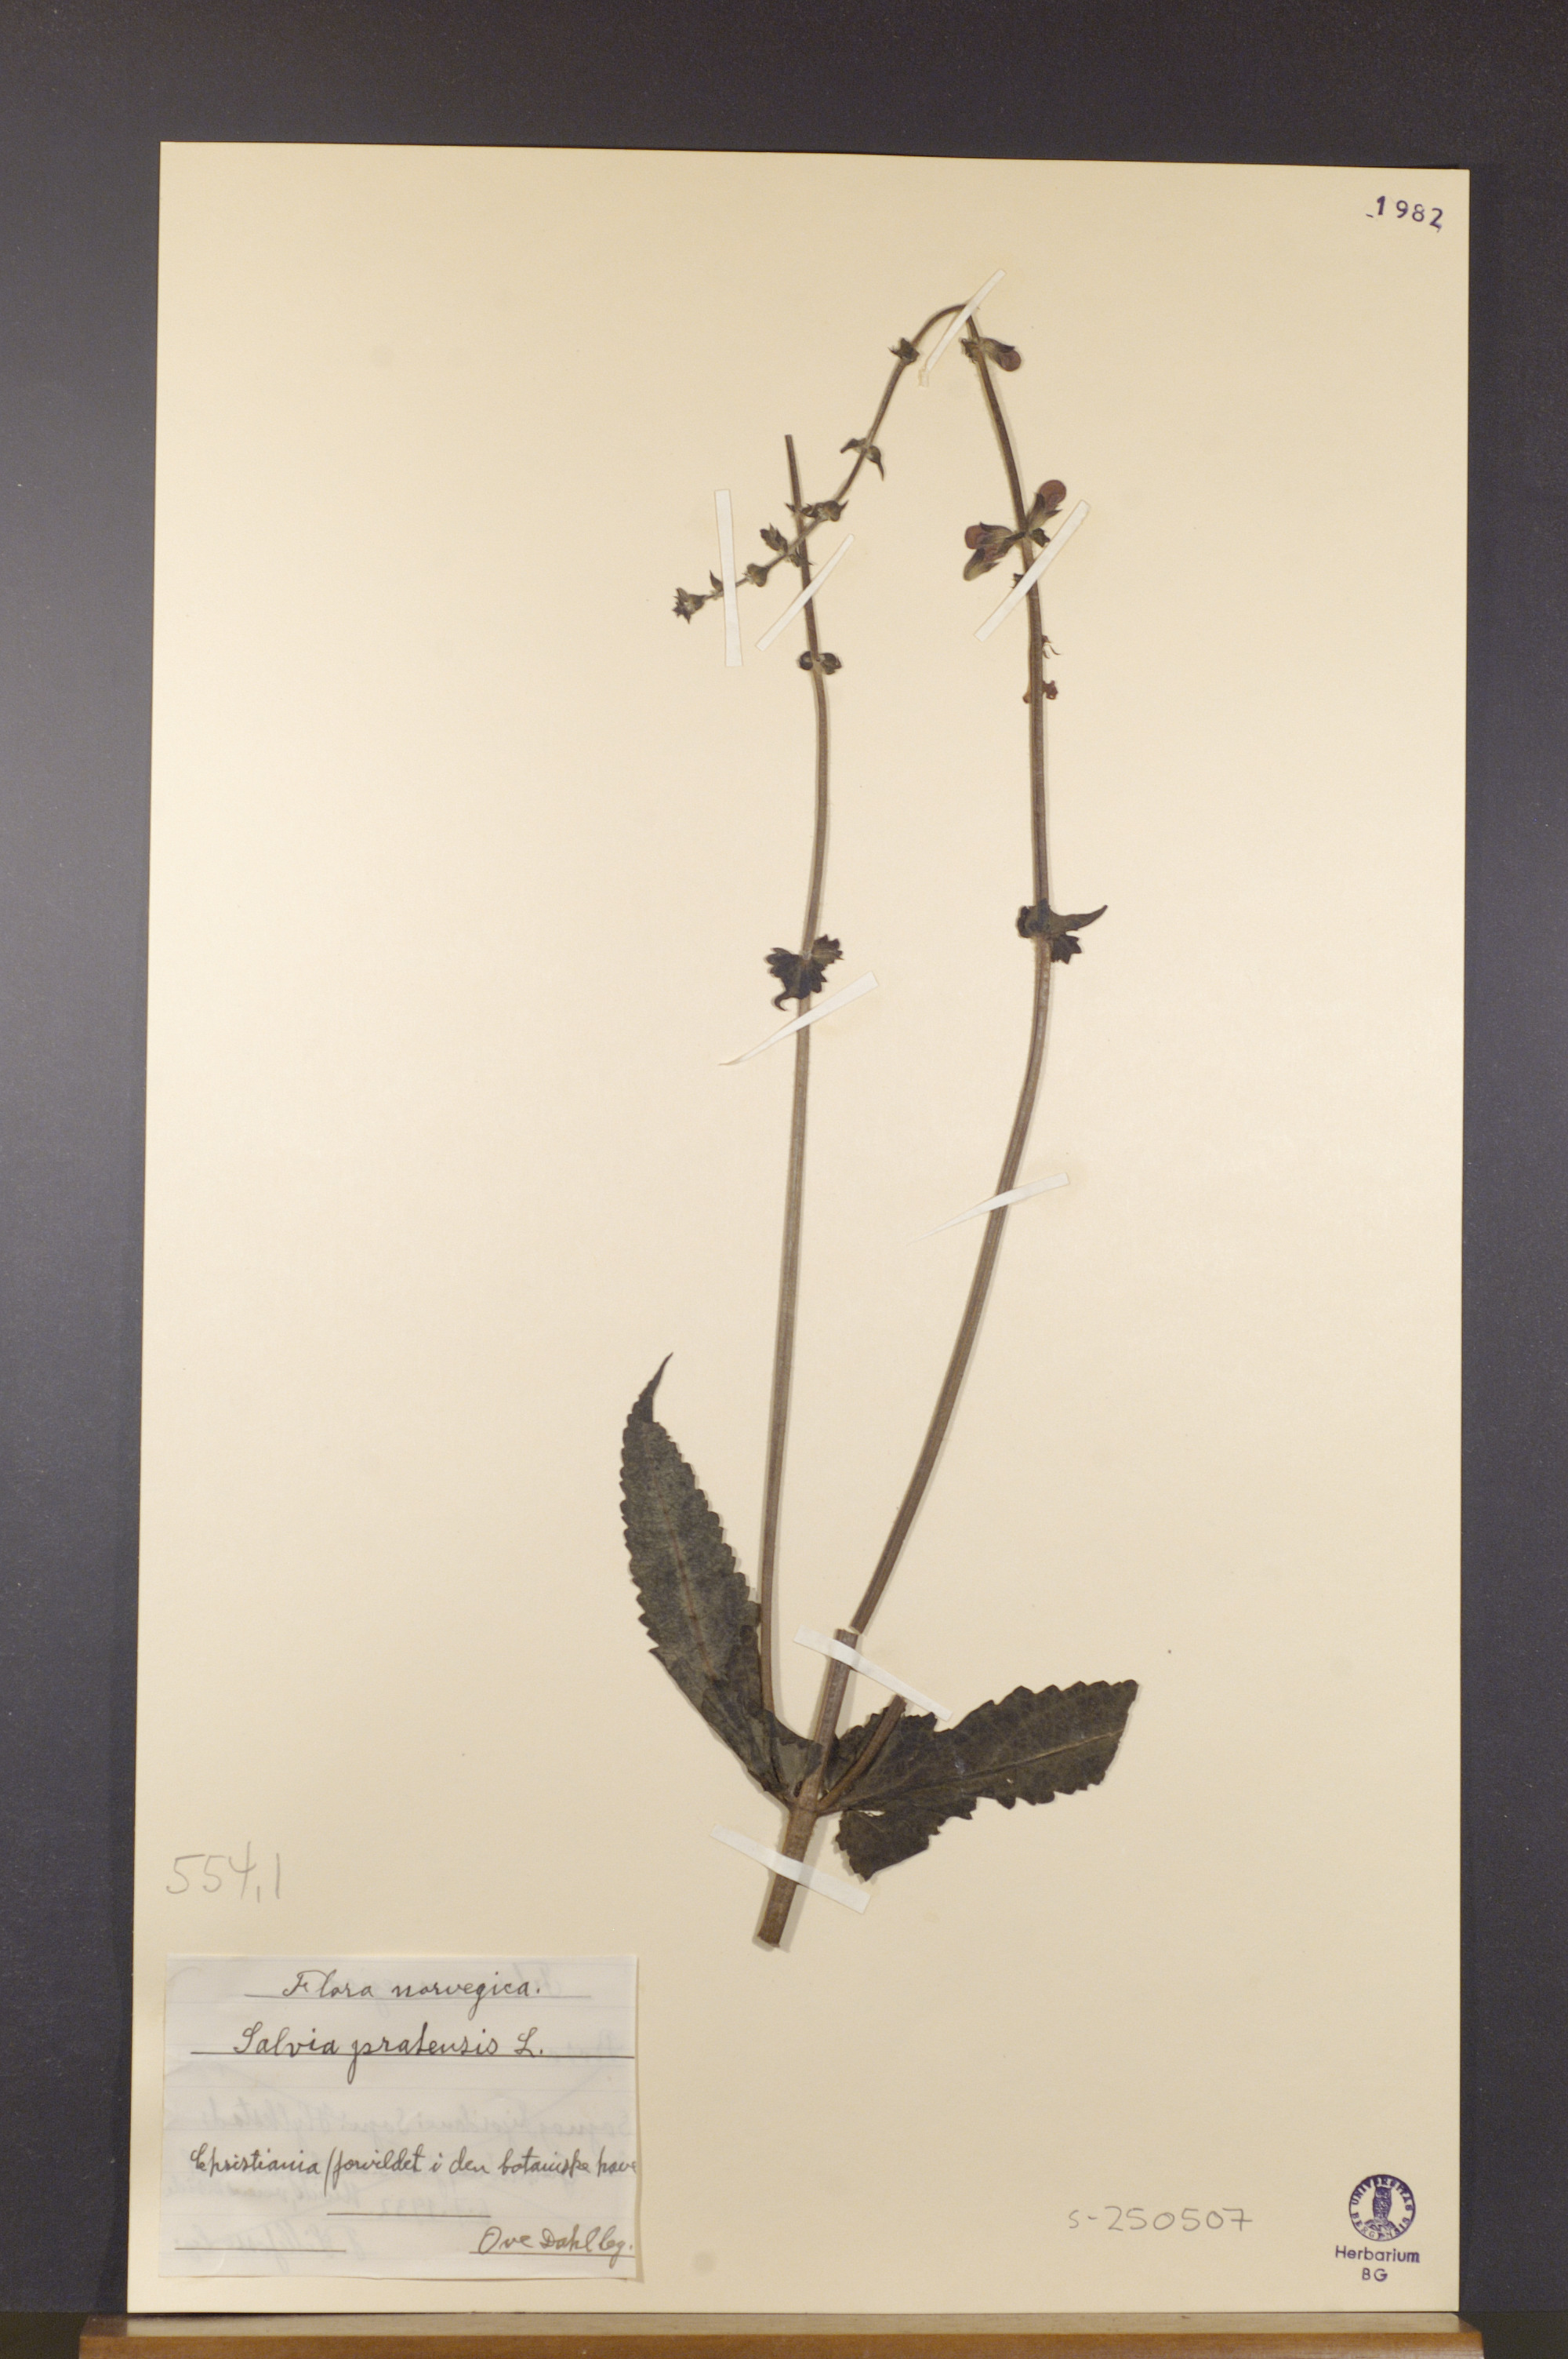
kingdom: Plantae
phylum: Tracheophyta
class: Magnoliopsida
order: Lamiales
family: Lamiaceae
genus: Salvia
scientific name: Salvia pratensis
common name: Meadow sage
